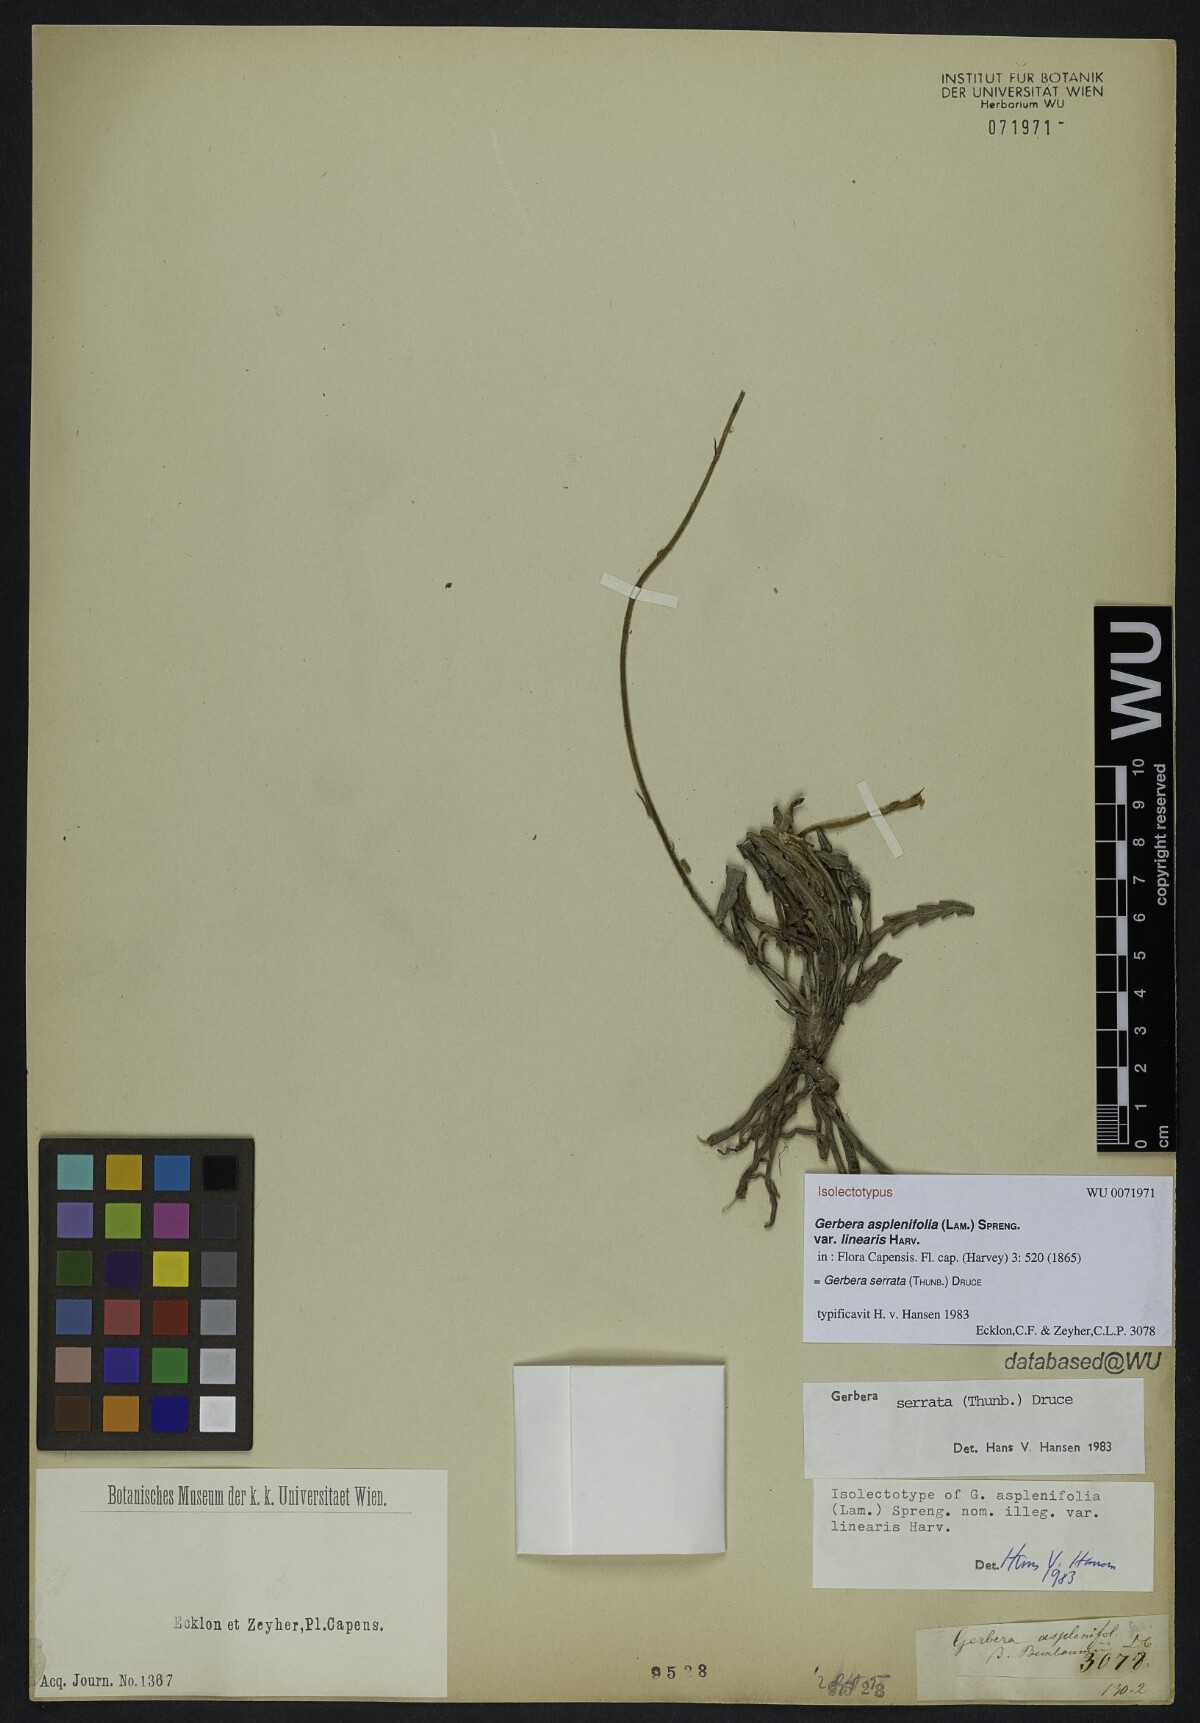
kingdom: Plantae
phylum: Tracheophyta
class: Magnoliopsida
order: Asterales
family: Asteraceae
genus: Gerbera
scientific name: Gerbera serrata
